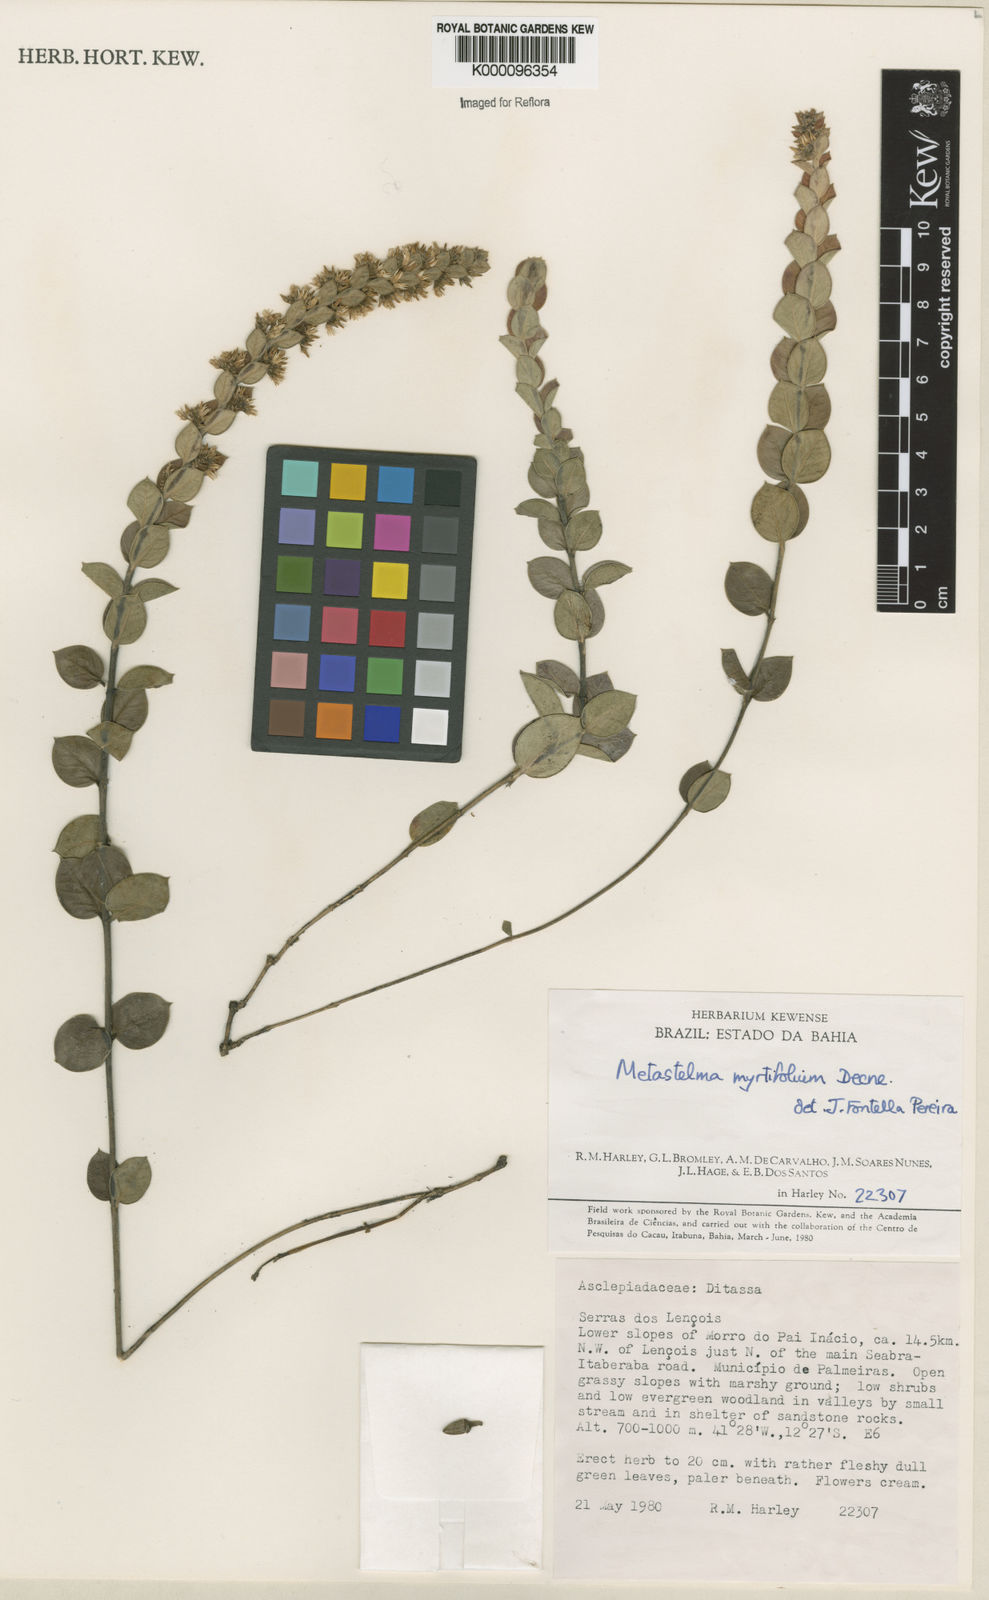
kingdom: Plantae
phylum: Tracheophyta
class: Magnoliopsida
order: Gentianales
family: Apocynaceae
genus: Metastelma
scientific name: Metastelma myrtifolium
